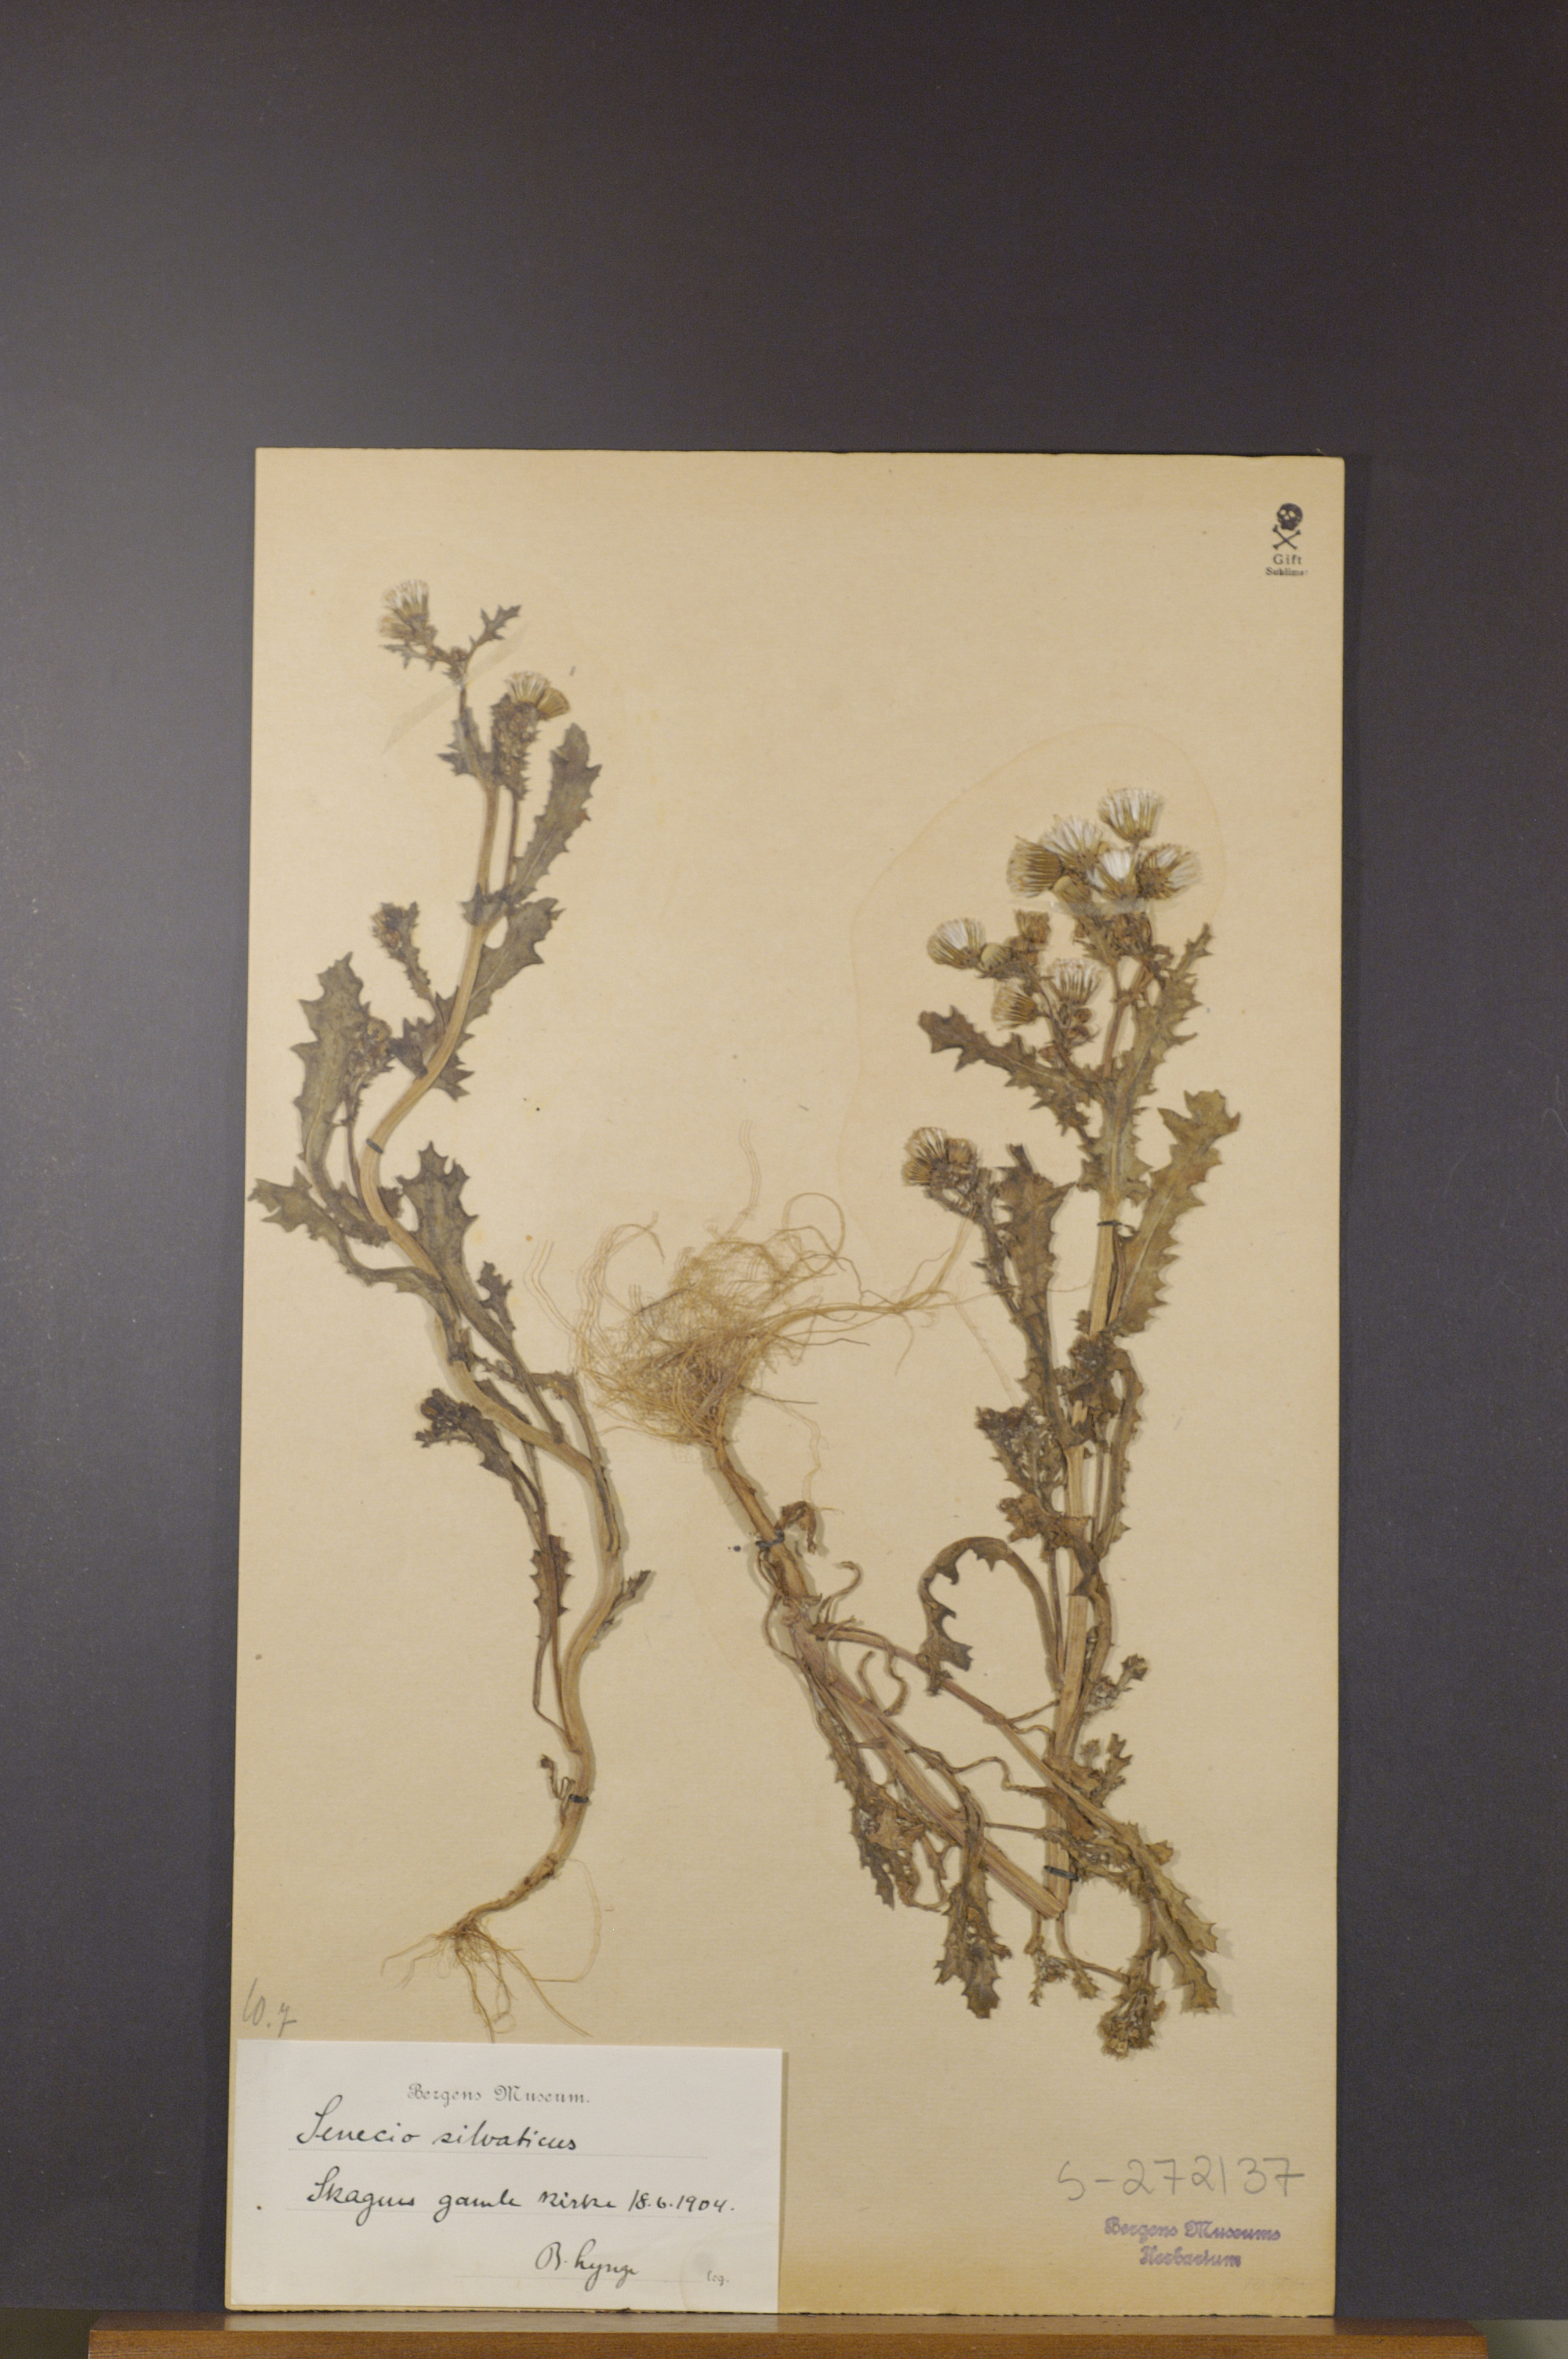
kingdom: Plantae
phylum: Tracheophyta
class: Magnoliopsida
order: Asterales
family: Asteraceae
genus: Senecio
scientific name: Senecio sylvaticus
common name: Woodland ragwort
